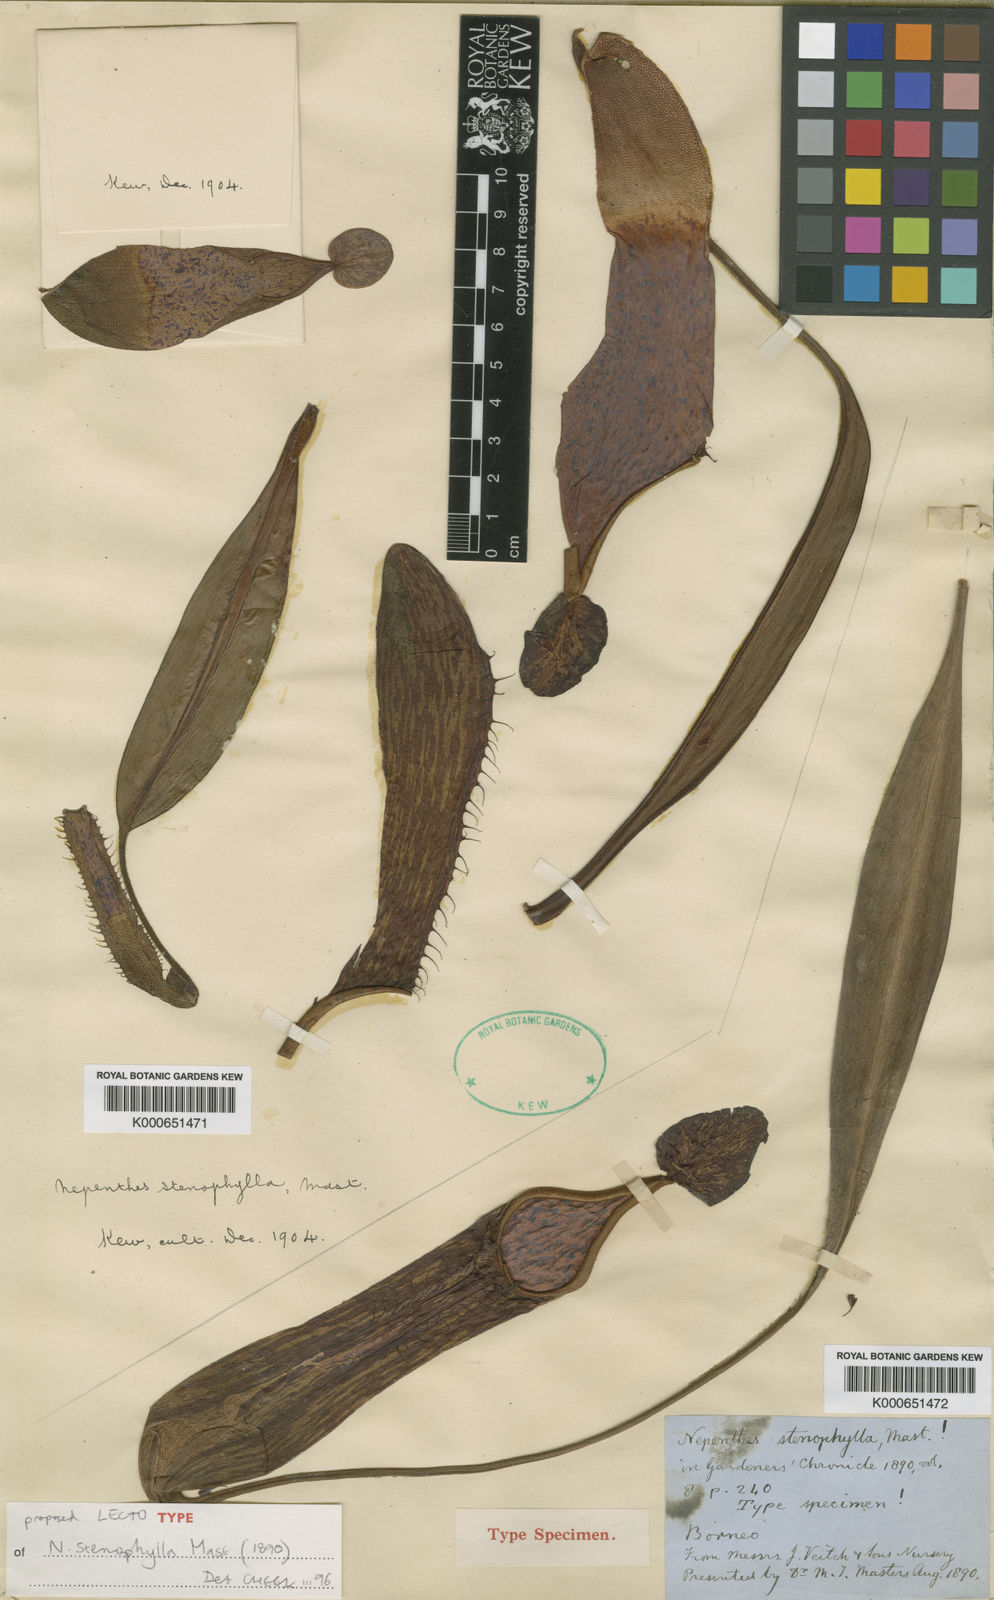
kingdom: Plantae
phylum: Tracheophyta
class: Magnoliopsida
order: Caryophyllales
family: Nepenthaceae
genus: Nepenthes
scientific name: Nepenthes stenophylla
